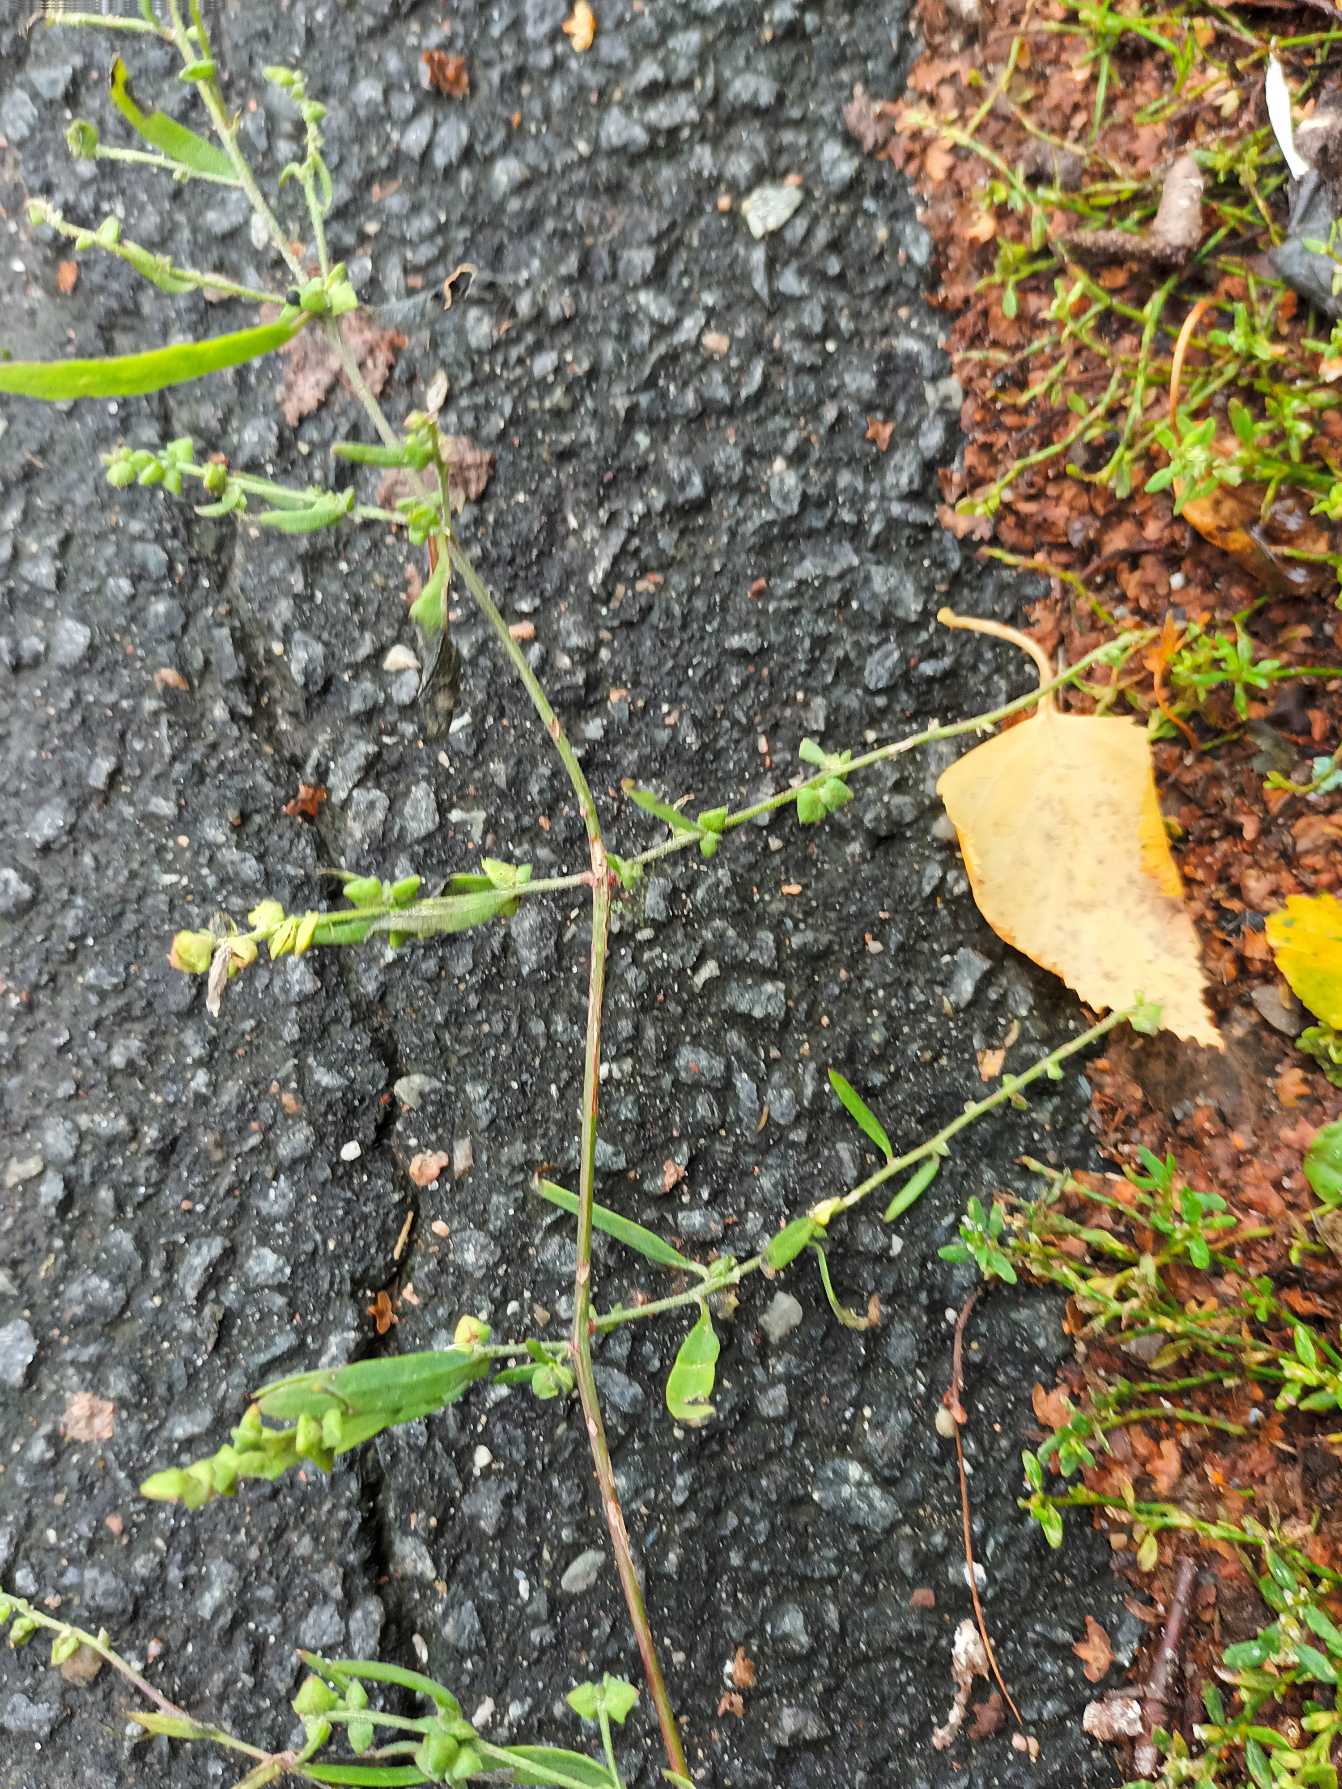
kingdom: Plantae
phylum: Tracheophyta
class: Magnoliopsida
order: Caryophyllales
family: Amaranthaceae
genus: Atriplex
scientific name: Atriplex patula
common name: Svine-mælde
